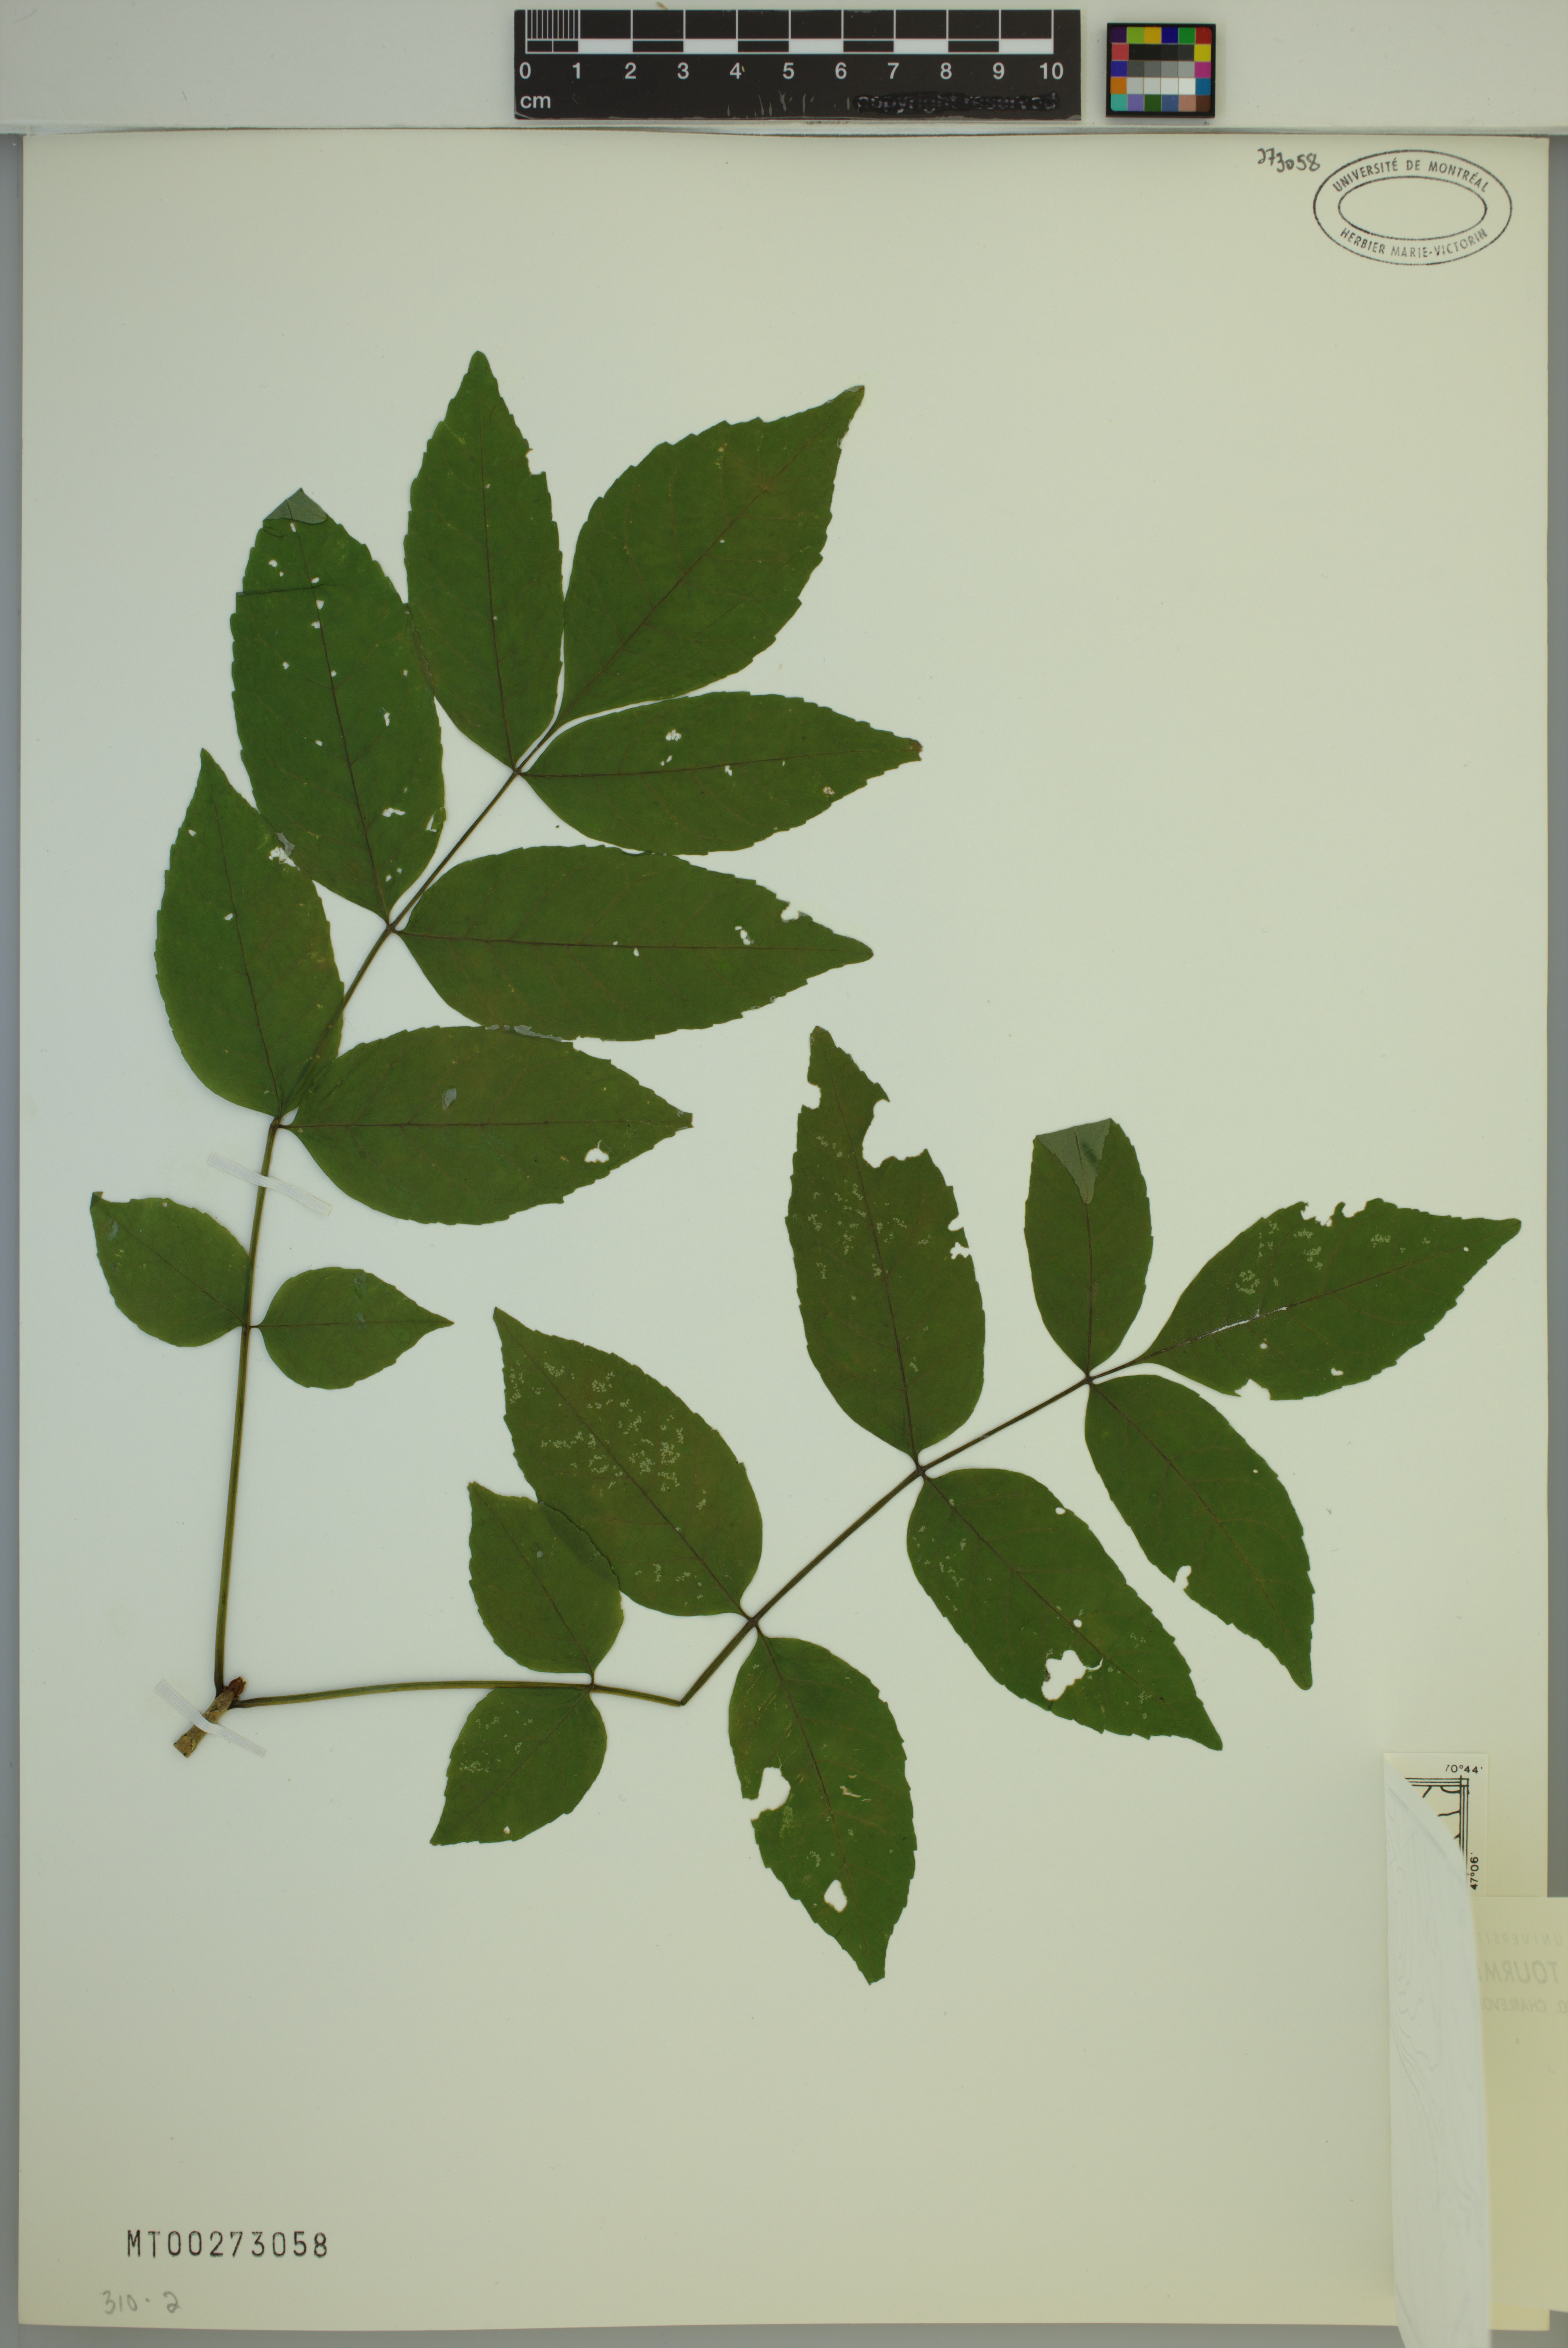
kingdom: Plantae
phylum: Tracheophyta
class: Magnoliopsida
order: Lamiales
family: Oleaceae
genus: Fraxinus
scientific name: Fraxinus pennsylvanica
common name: Green ash
